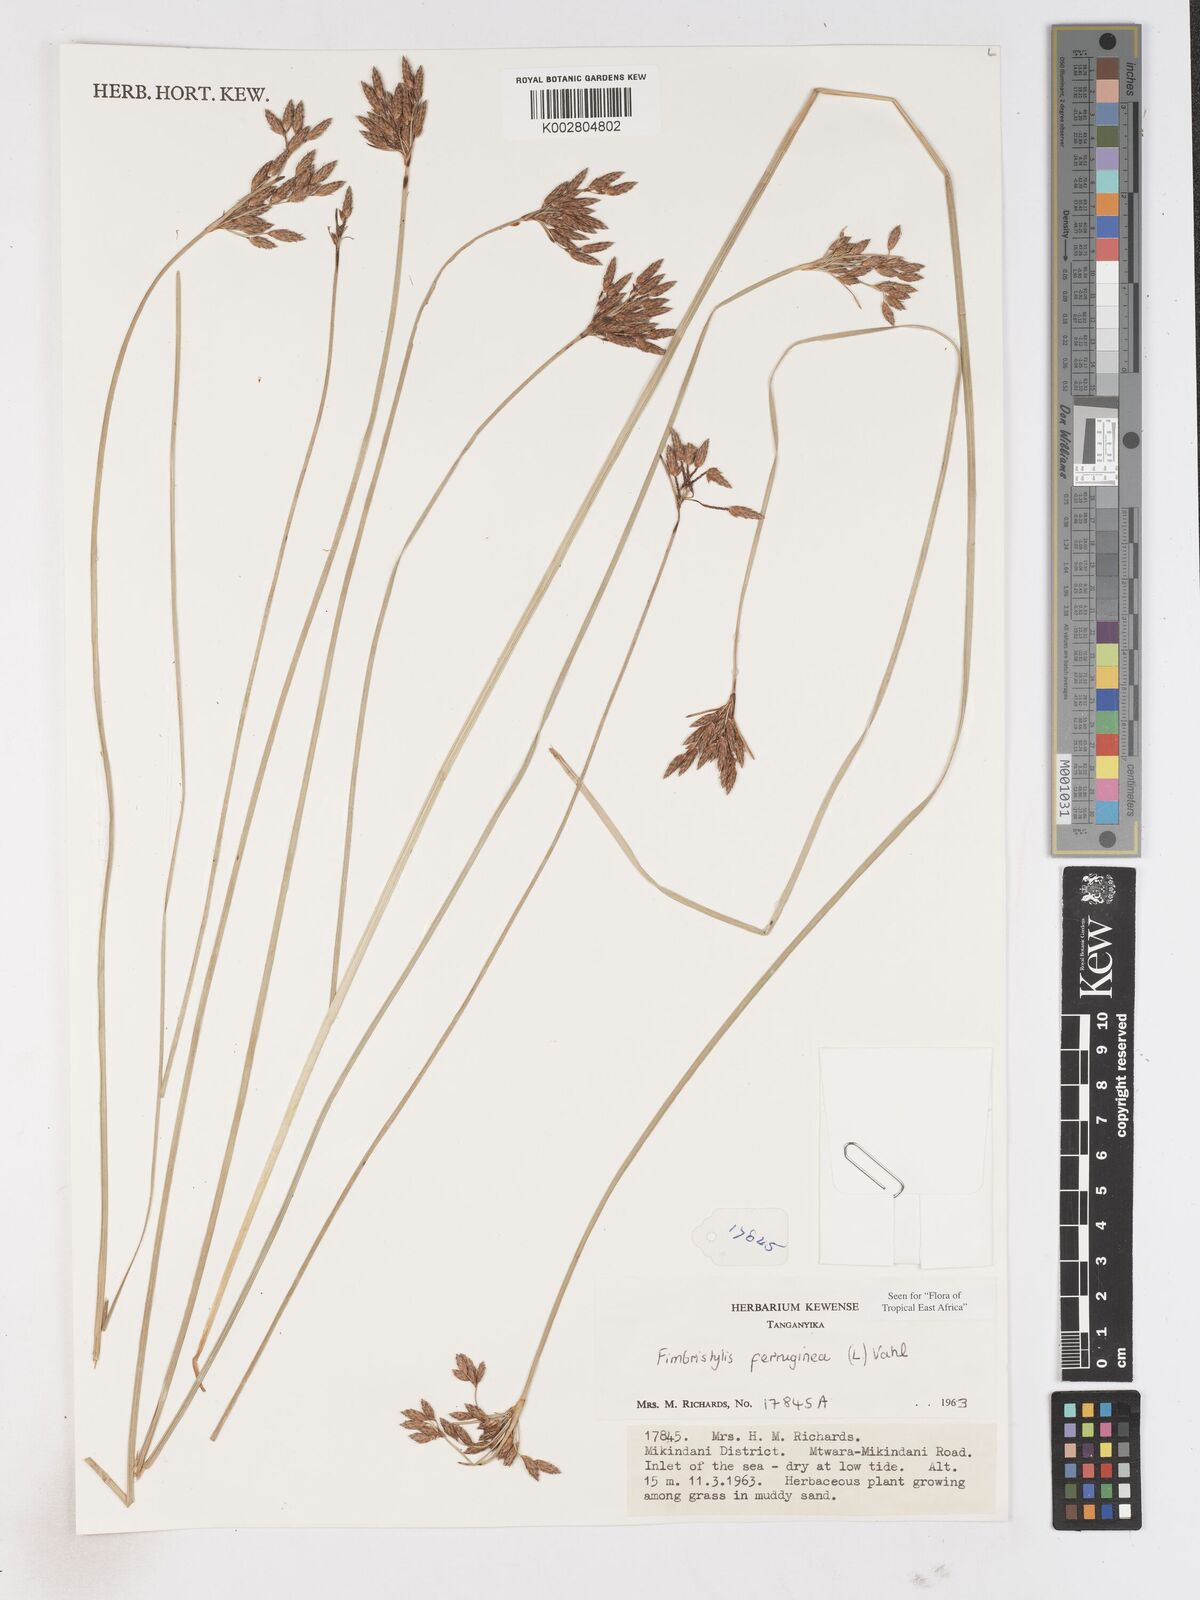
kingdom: Plantae
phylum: Tracheophyta
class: Liliopsida
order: Poales
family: Cyperaceae
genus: Fimbristylis
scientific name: Fimbristylis ferruginea
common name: West indian fimbry
